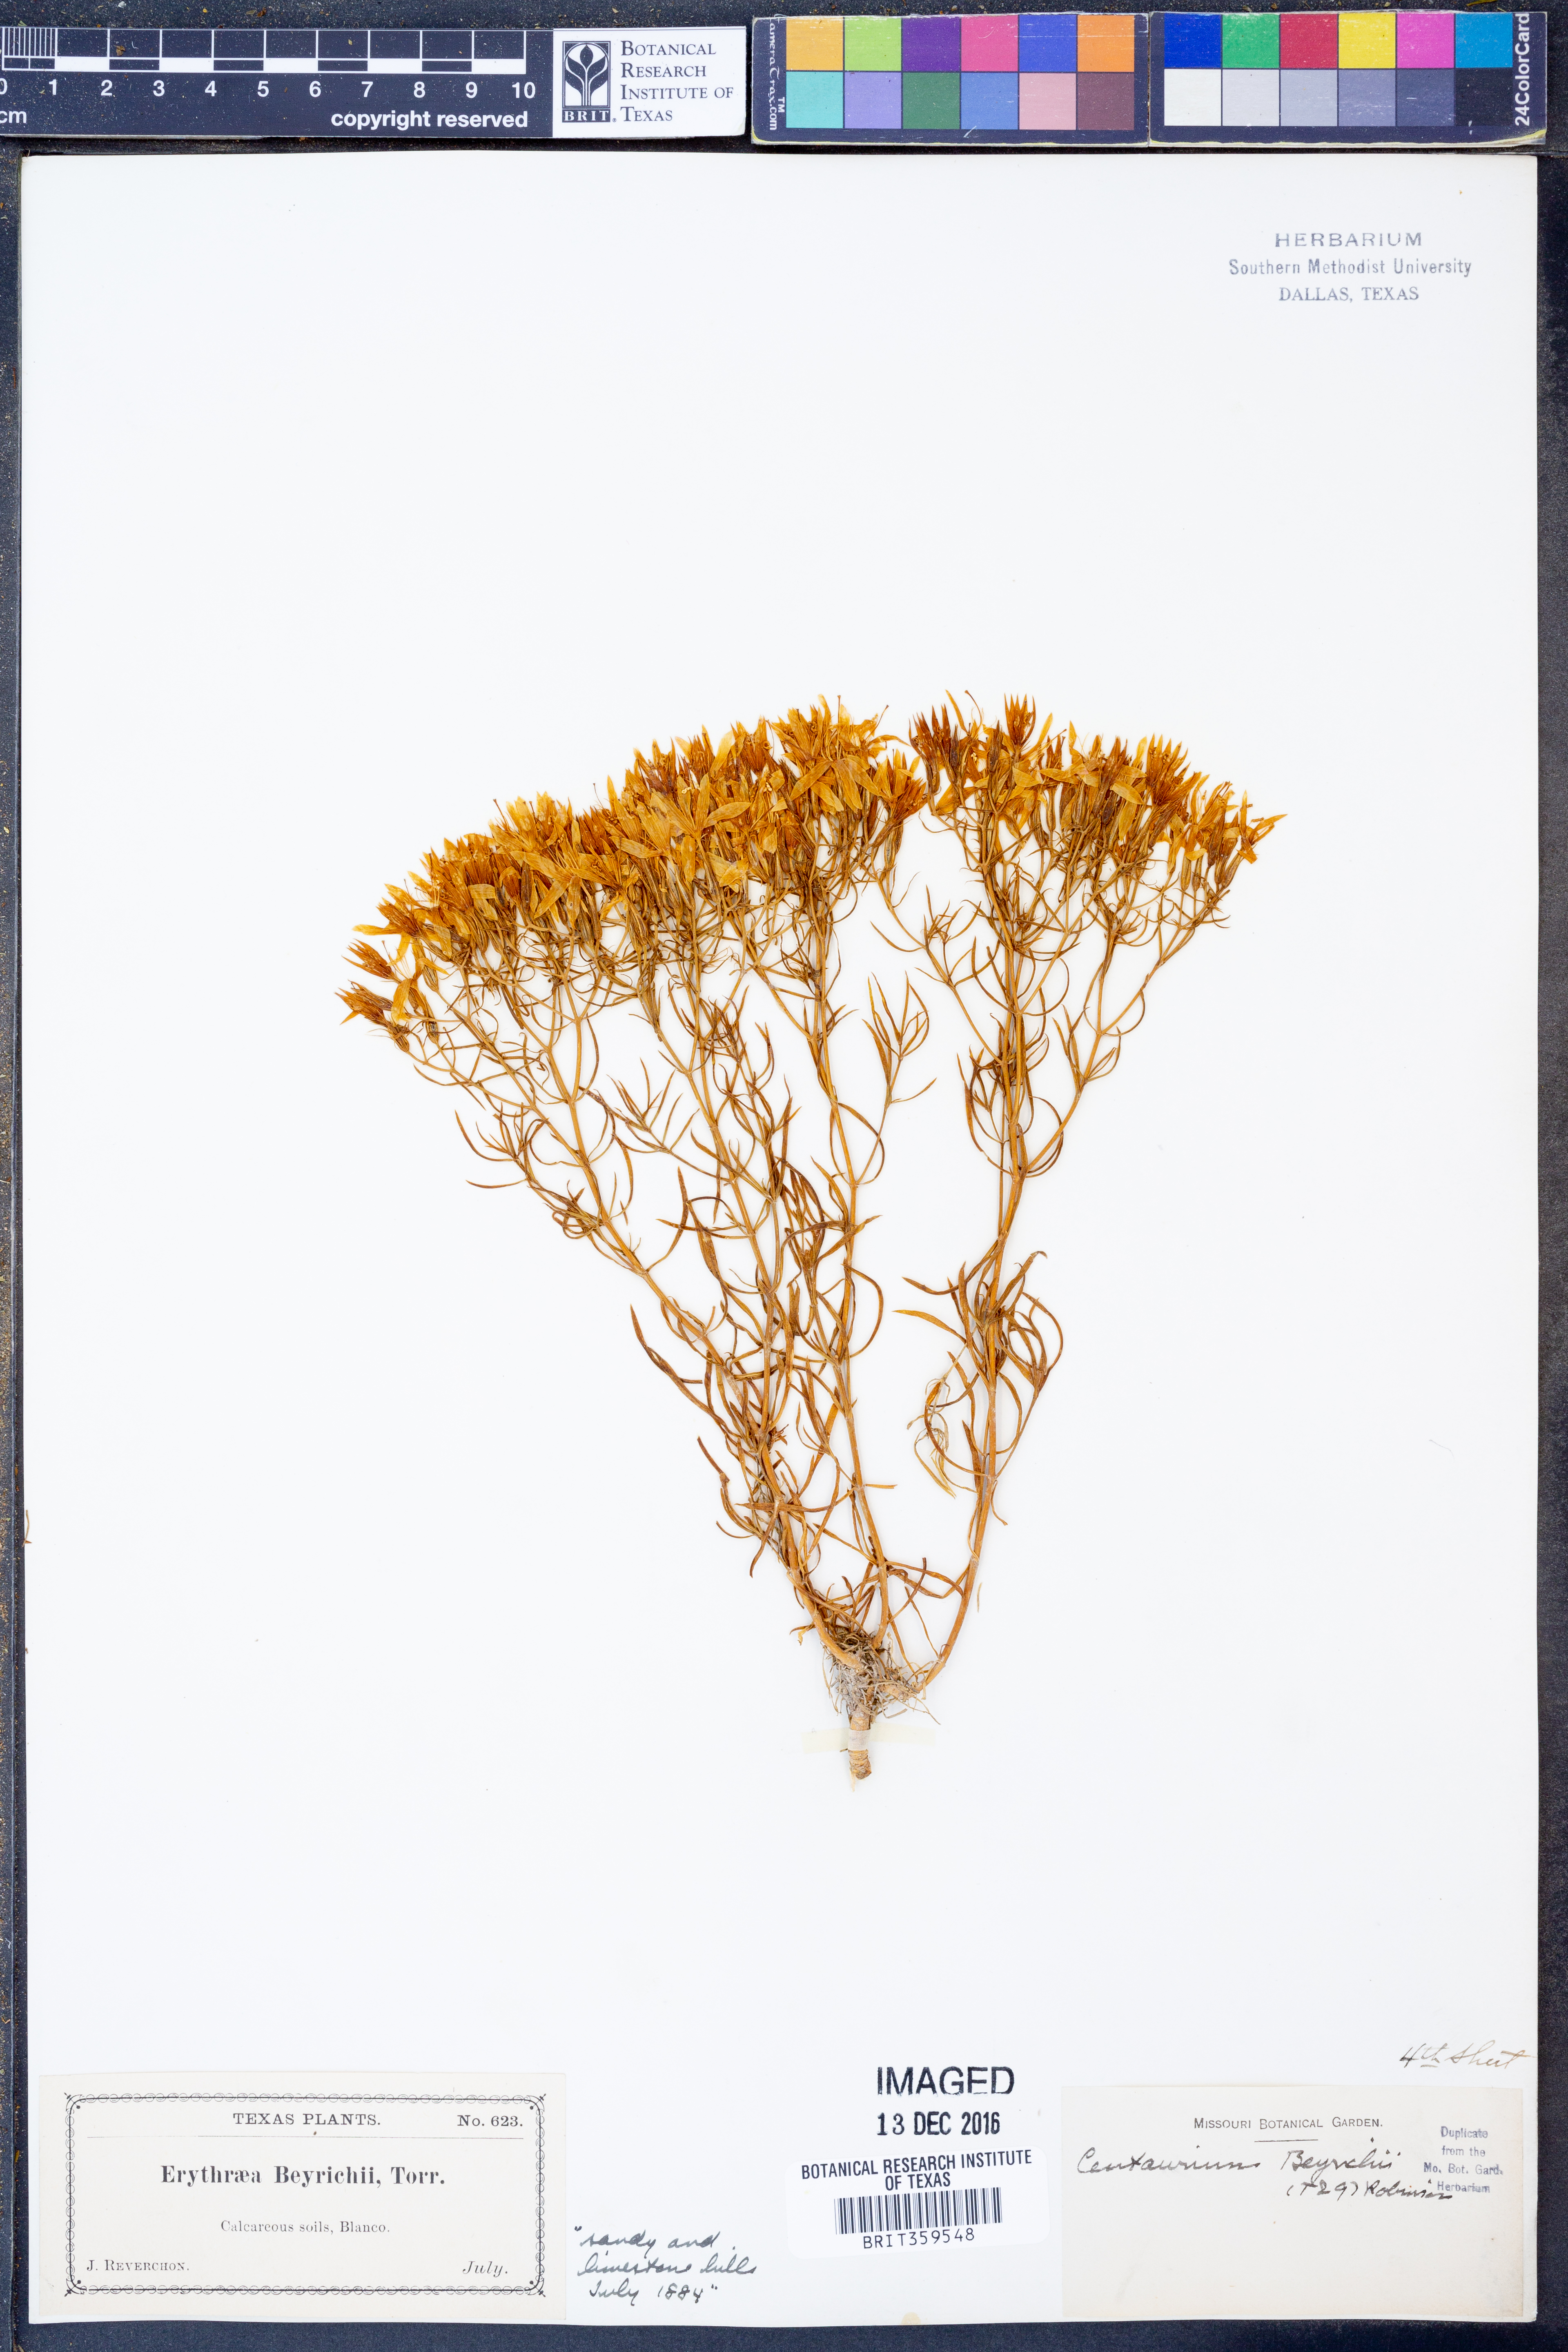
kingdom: Plantae
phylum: Tracheophyta
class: Magnoliopsida
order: Gentianales
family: Gentianaceae
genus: Zeltnera
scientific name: Zeltnera beyrichii
